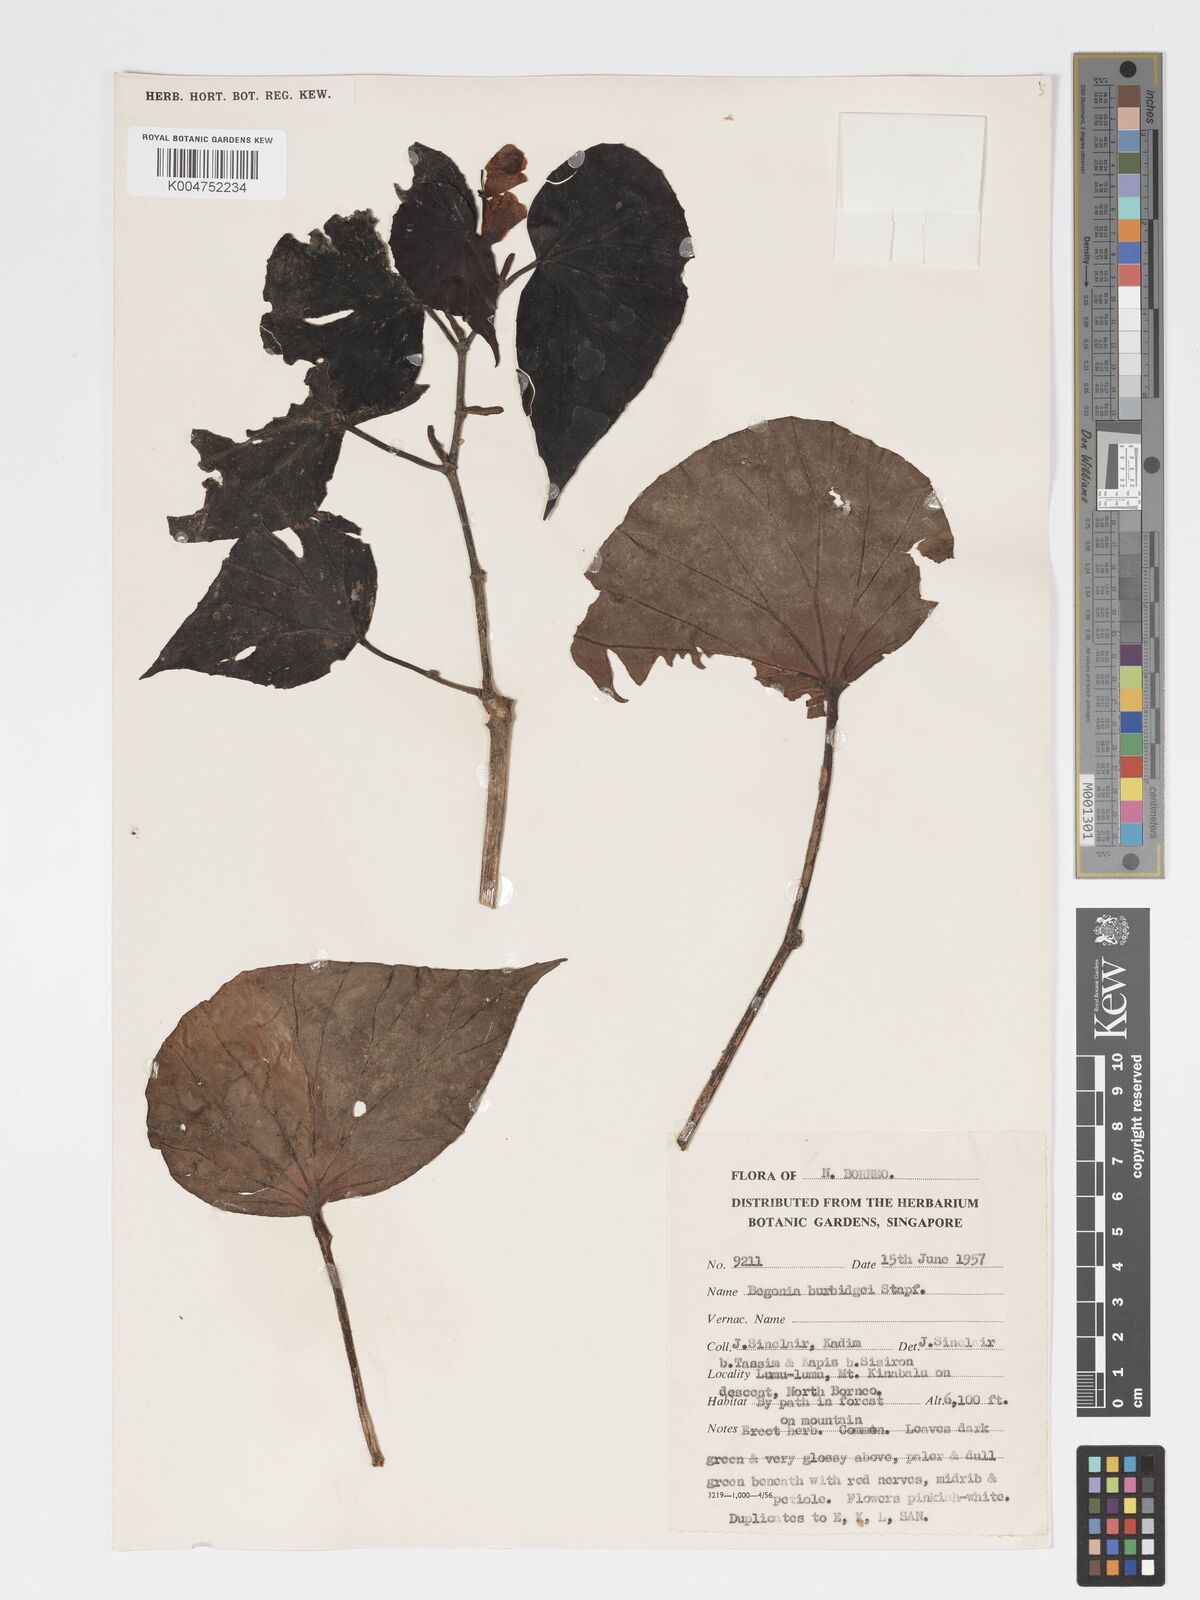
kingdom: Plantae
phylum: Tracheophyta
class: Magnoliopsida
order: Cucurbitales
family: Begoniaceae
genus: Begonia
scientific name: Begonia burbidgei
